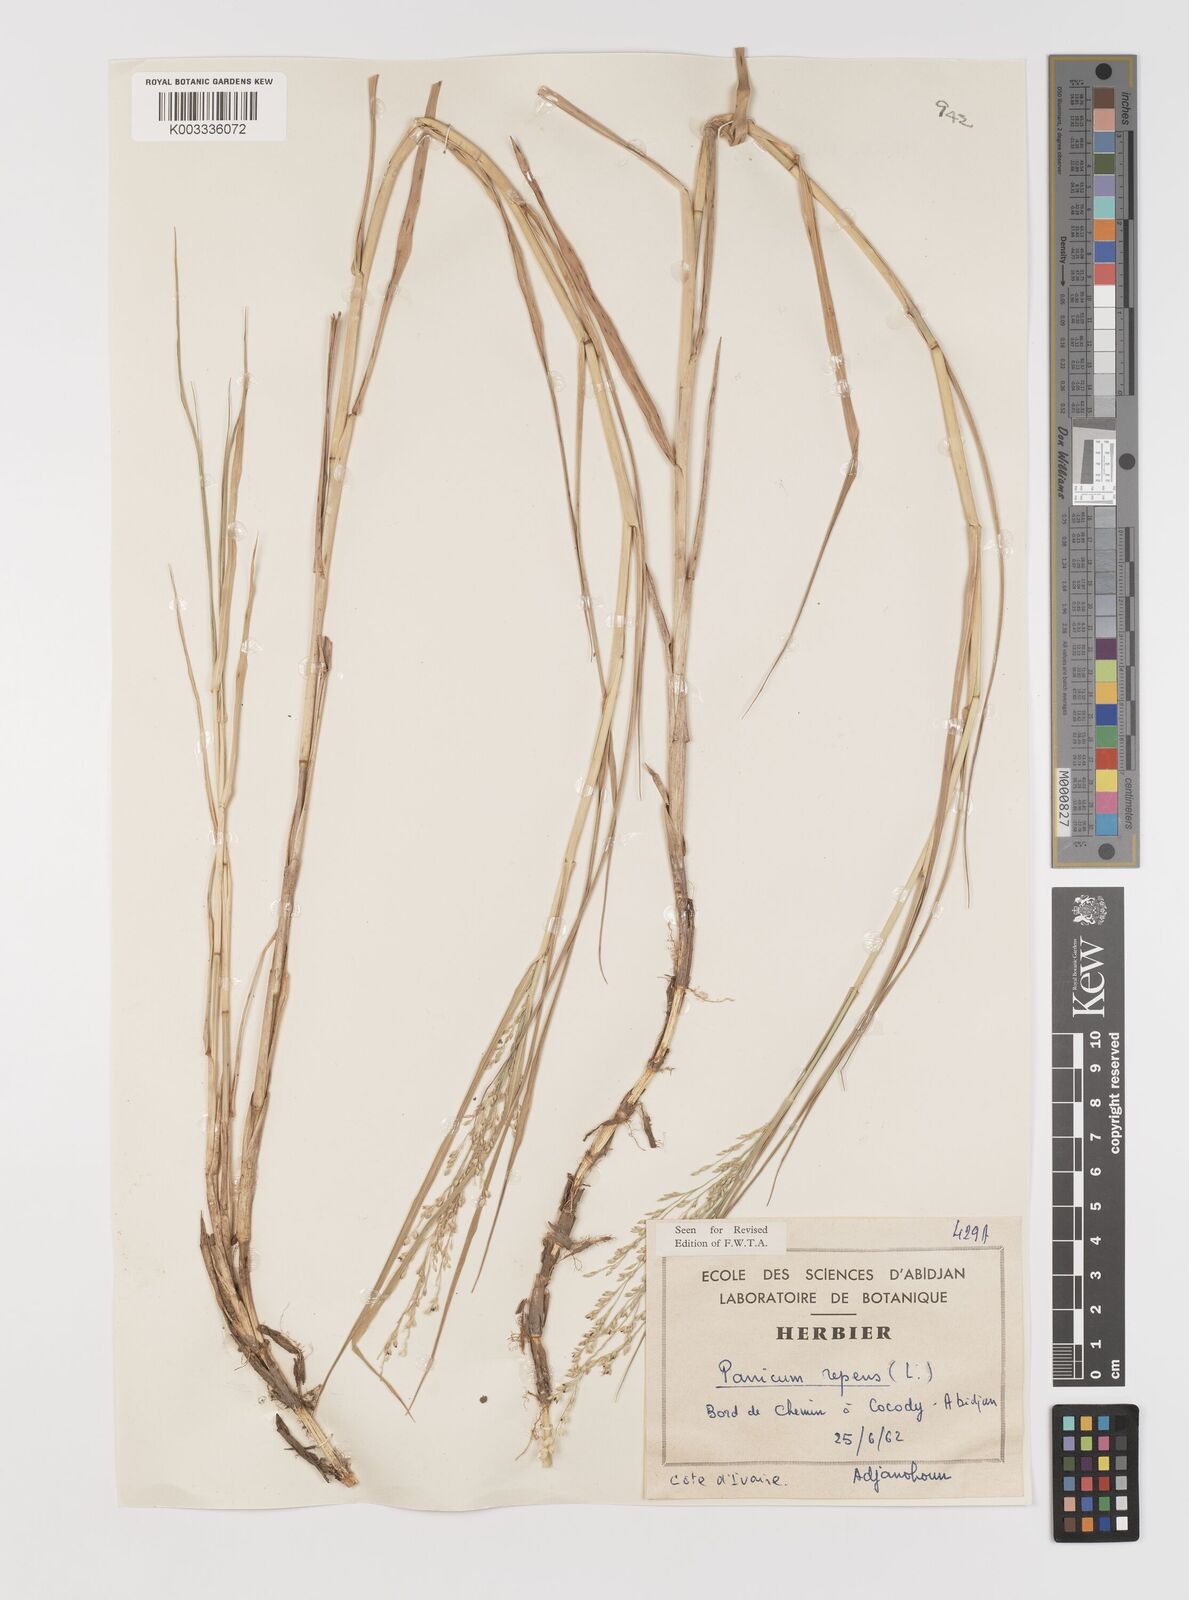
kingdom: Plantae
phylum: Tracheophyta
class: Liliopsida
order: Poales
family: Poaceae
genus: Panicum
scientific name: Panicum repens
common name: Torpedo grass
